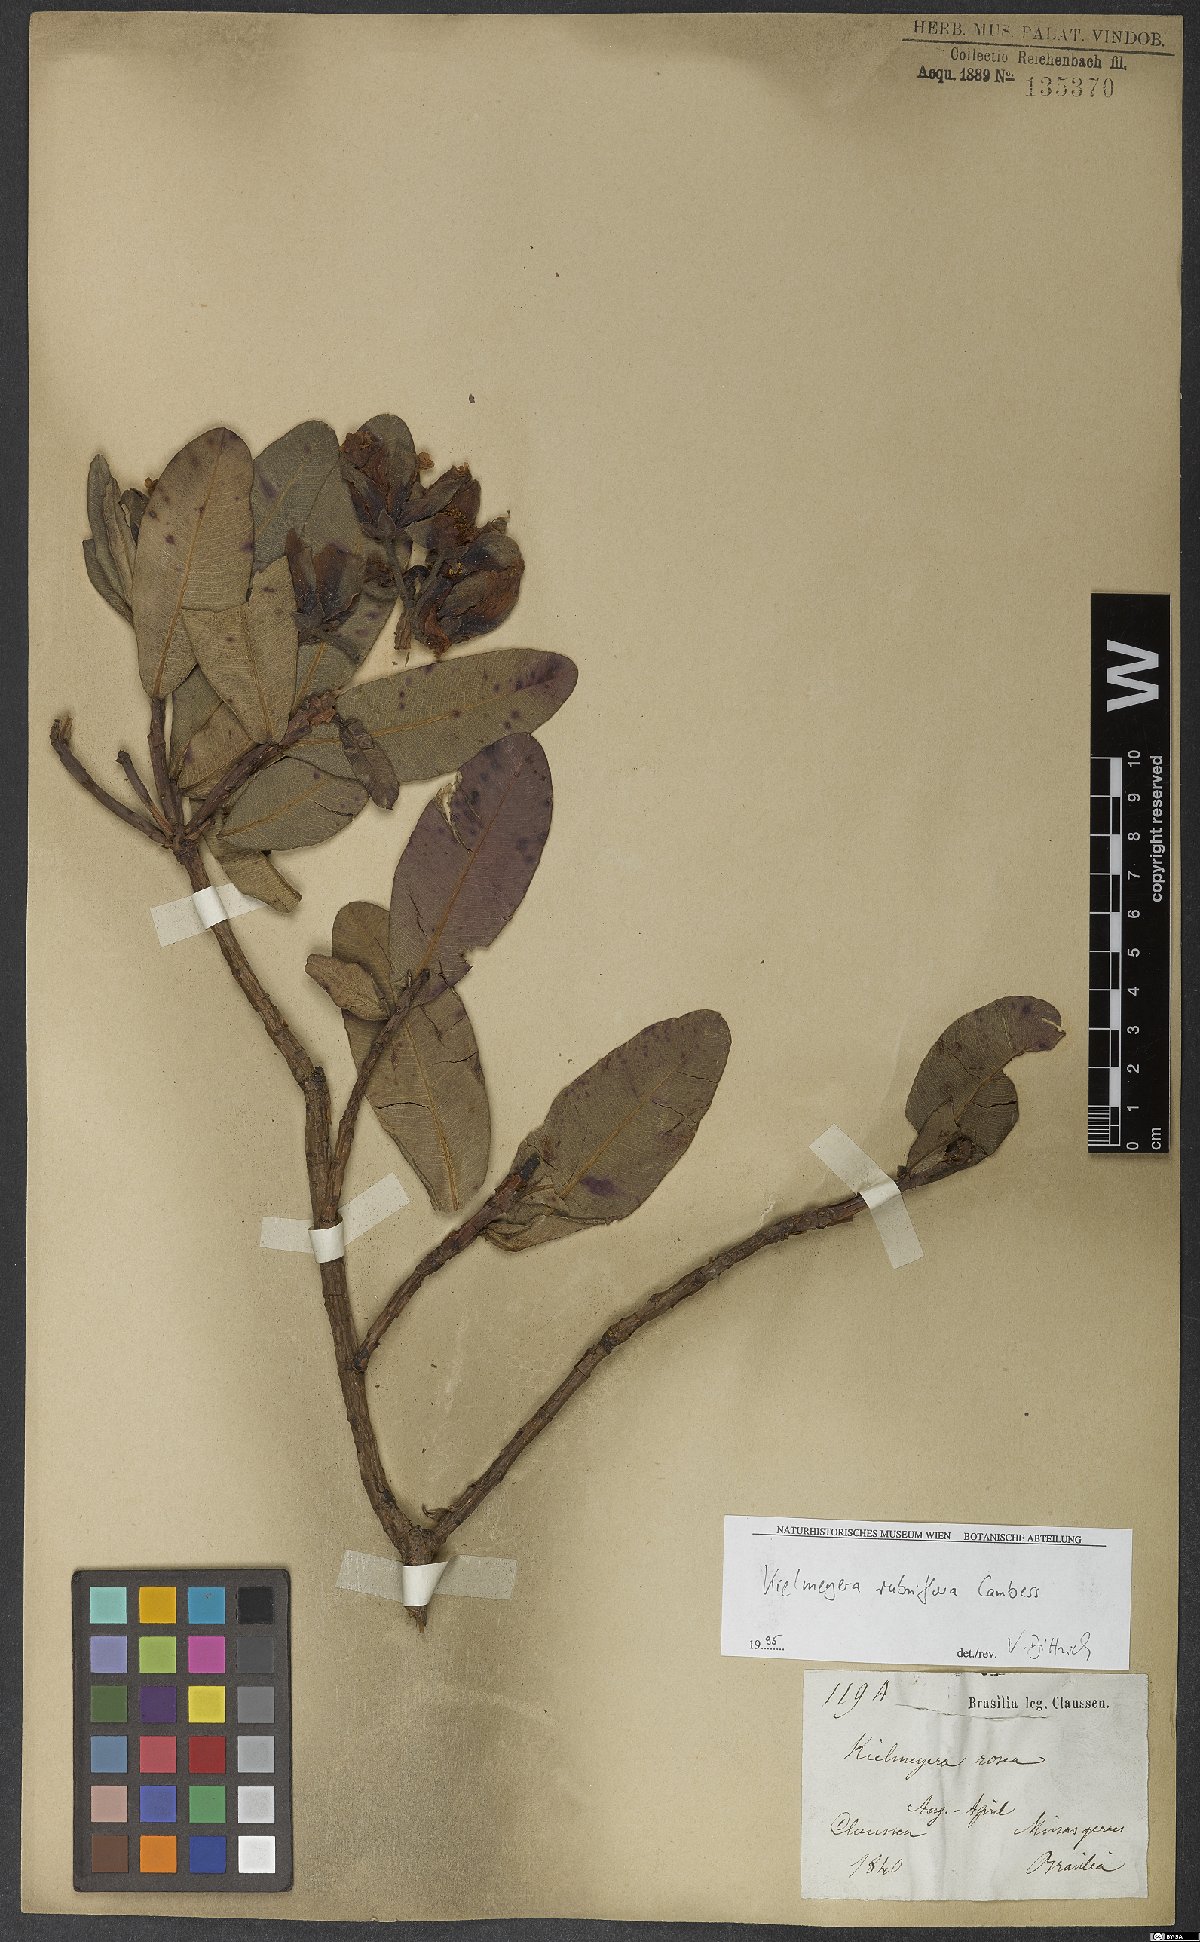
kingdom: Plantae
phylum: Tracheophyta
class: Magnoliopsida
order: Malpighiales
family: Calophyllaceae
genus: Kielmeyera
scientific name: Kielmeyera rubriflora
